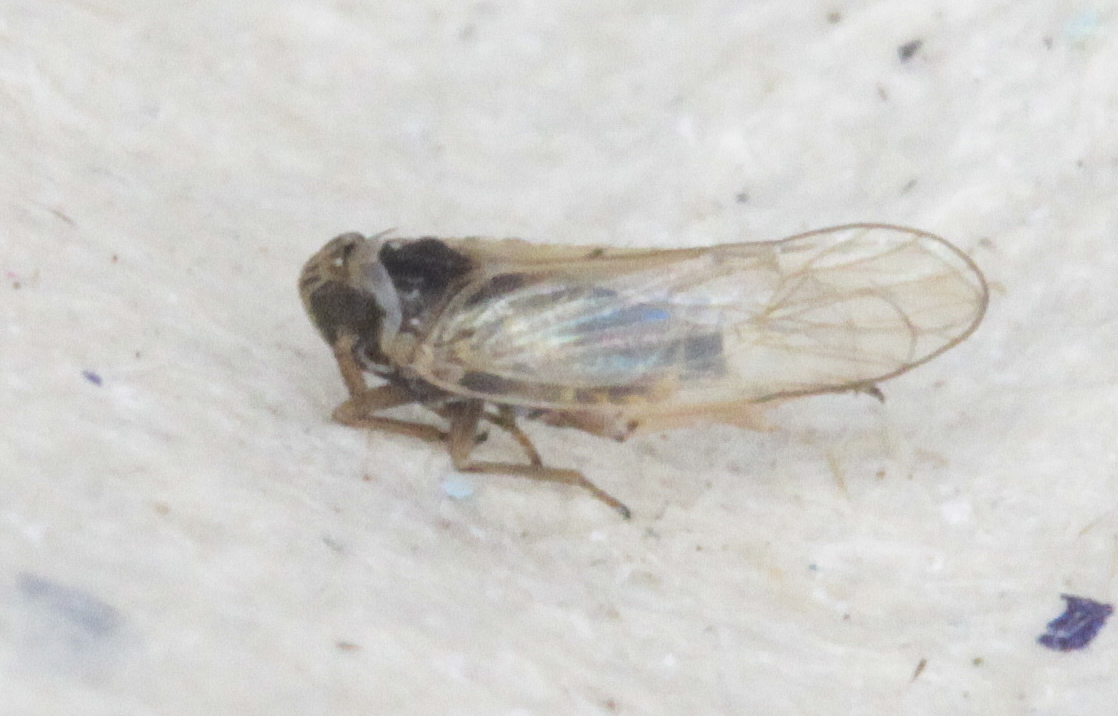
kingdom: Animalia
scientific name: Animalia
